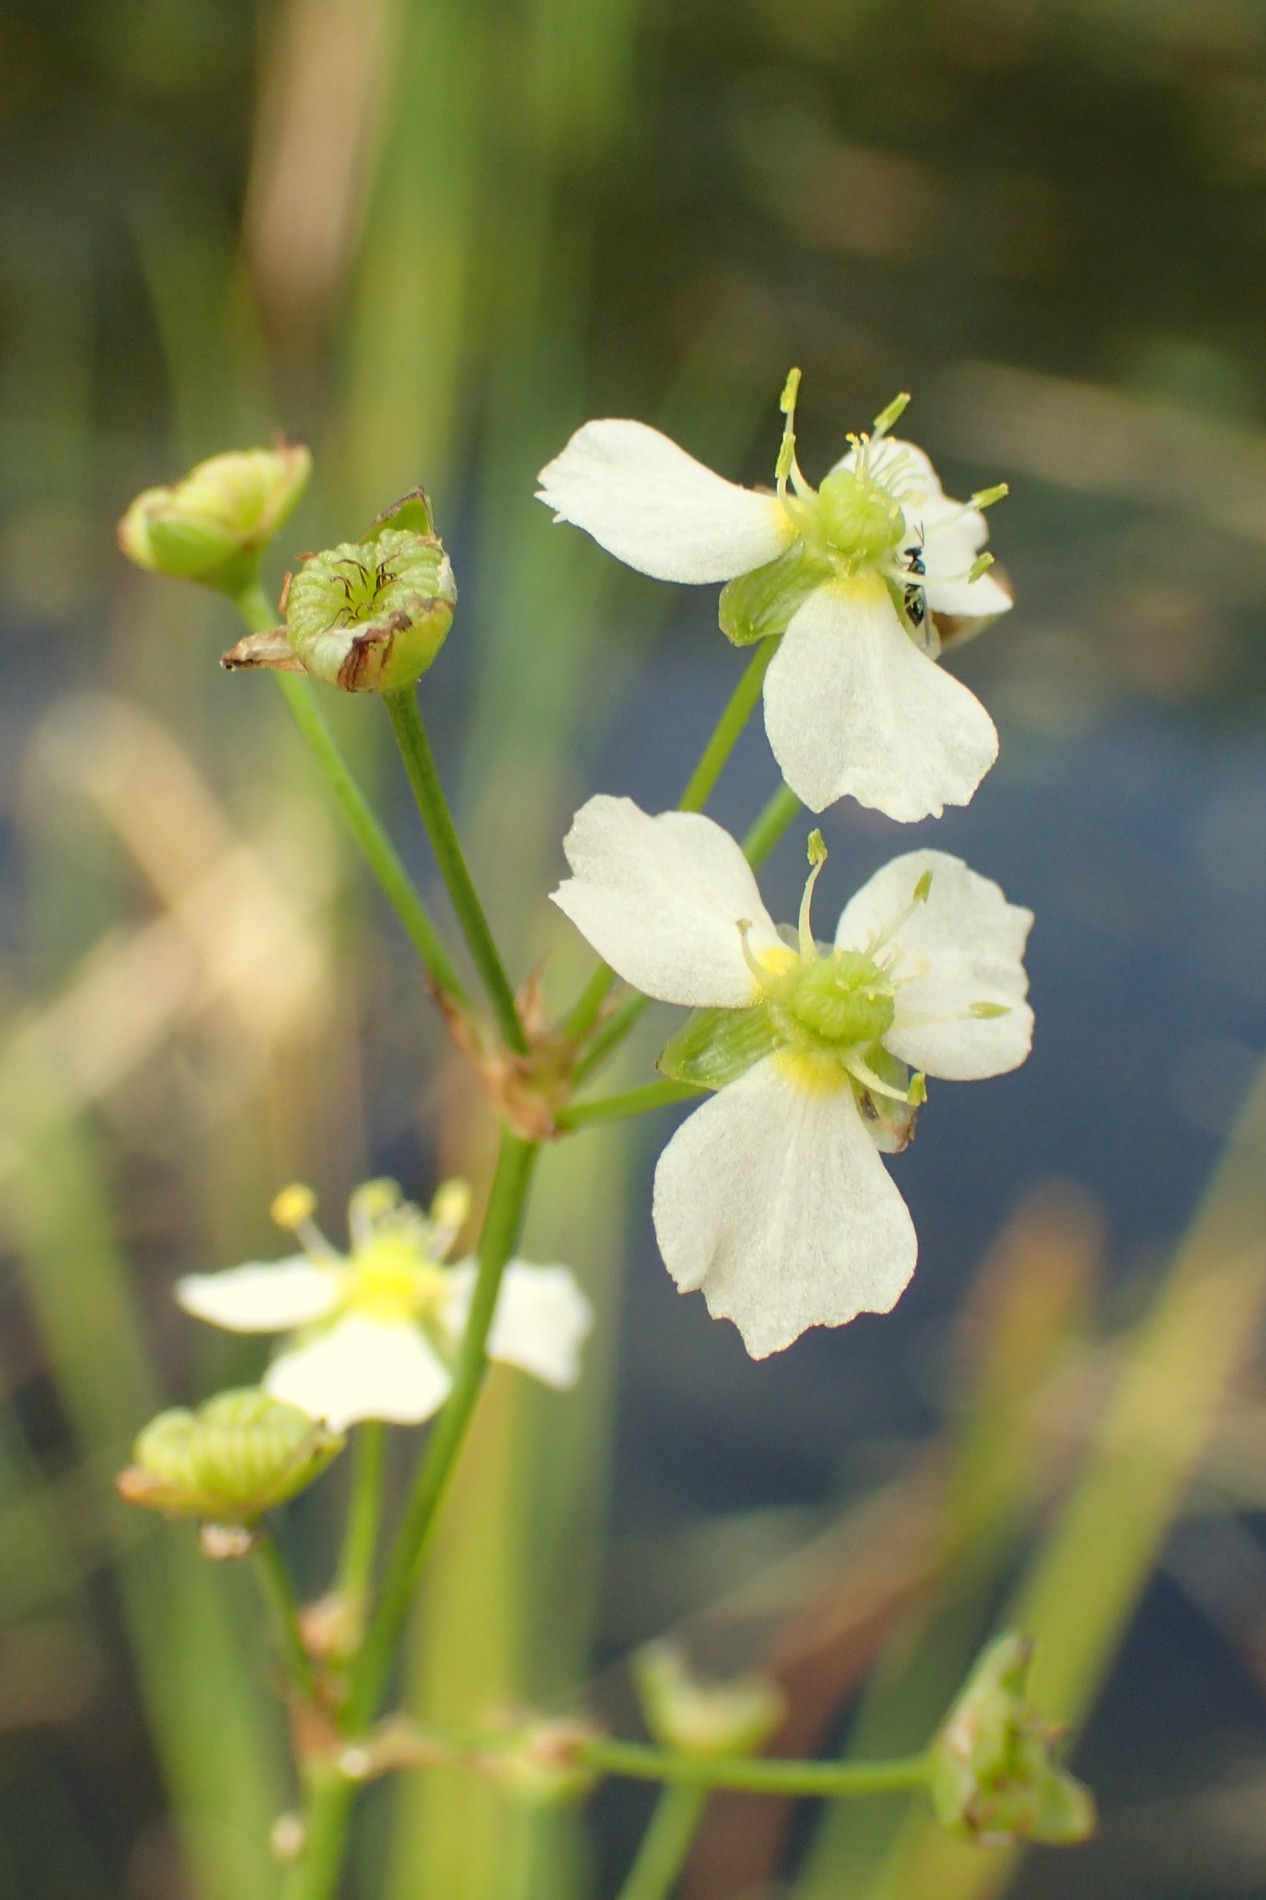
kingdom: Plantae
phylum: Tracheophyta
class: Liliopsida
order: Alismatales
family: Alismataceae
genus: Alisma
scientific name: Alisma plantago-aquatica
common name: Vejbred-skeblad
